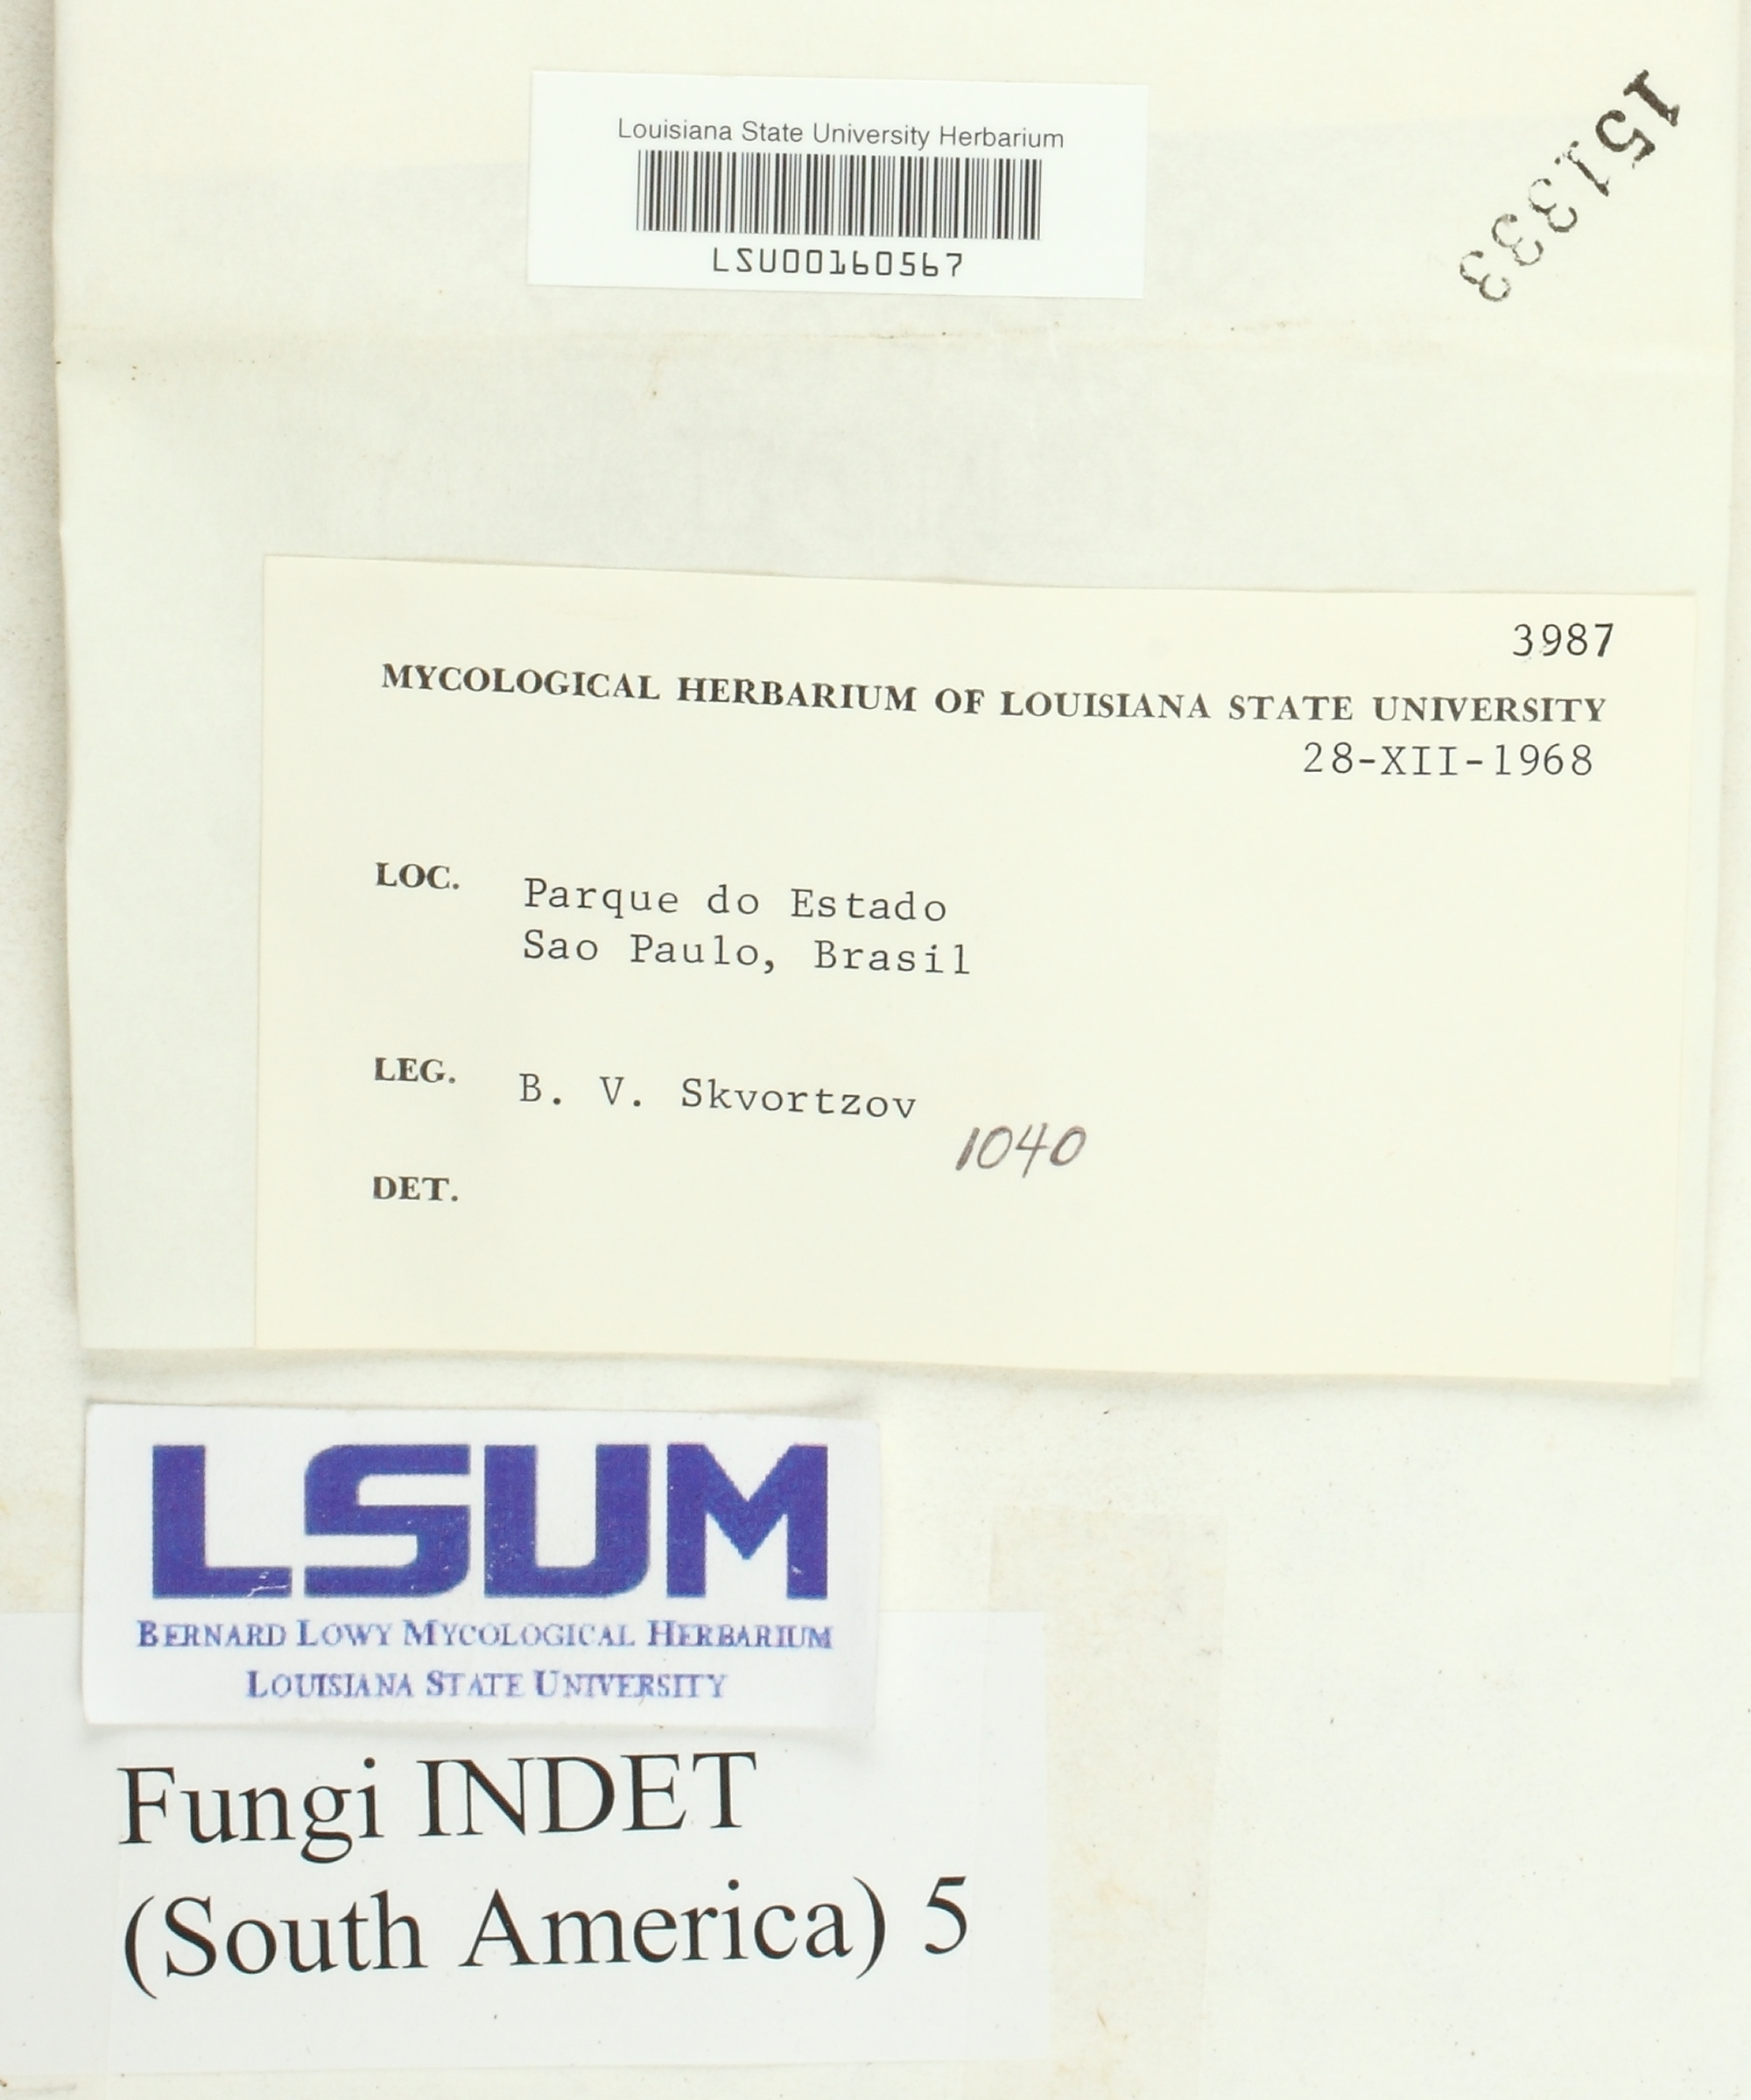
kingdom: Fungi
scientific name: Fungi
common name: Fungi
